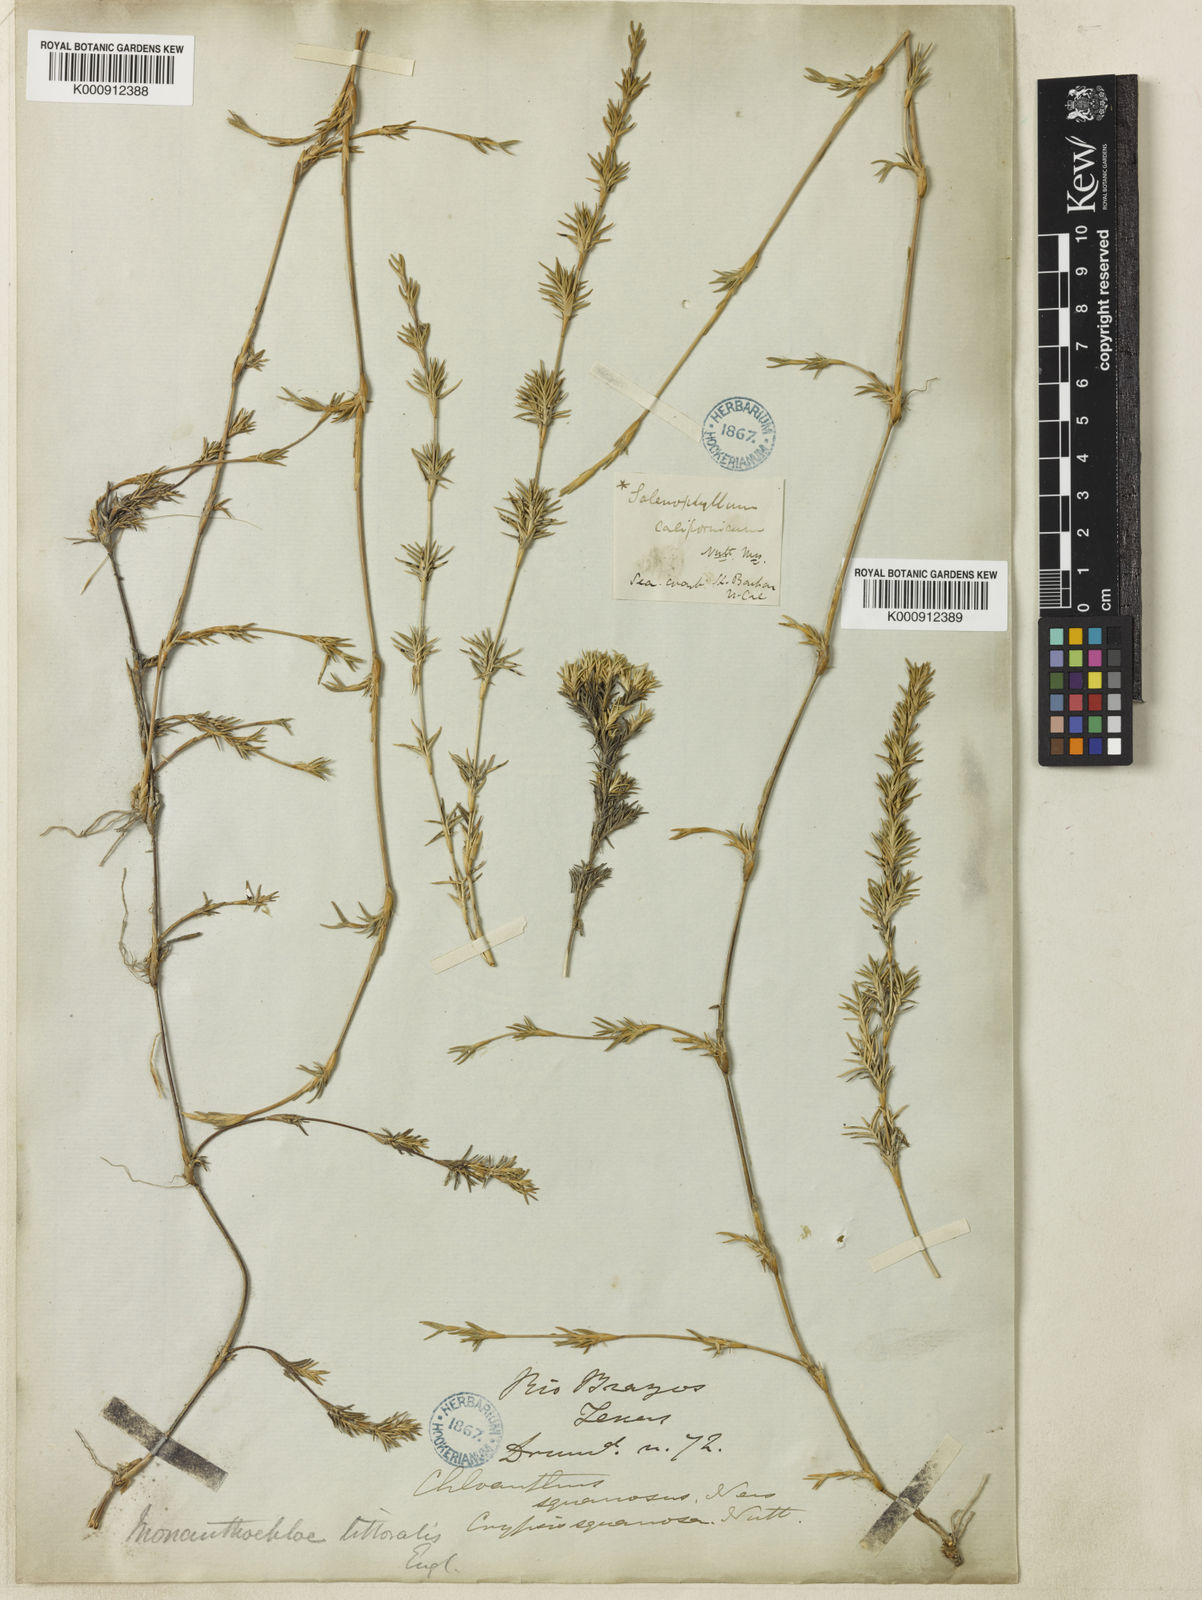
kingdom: Plantae
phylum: Tracheophyta
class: Liliopsida
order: Poales
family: Poaceae
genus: Distichlis
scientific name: Distichlis littoralis
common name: Shore grass
